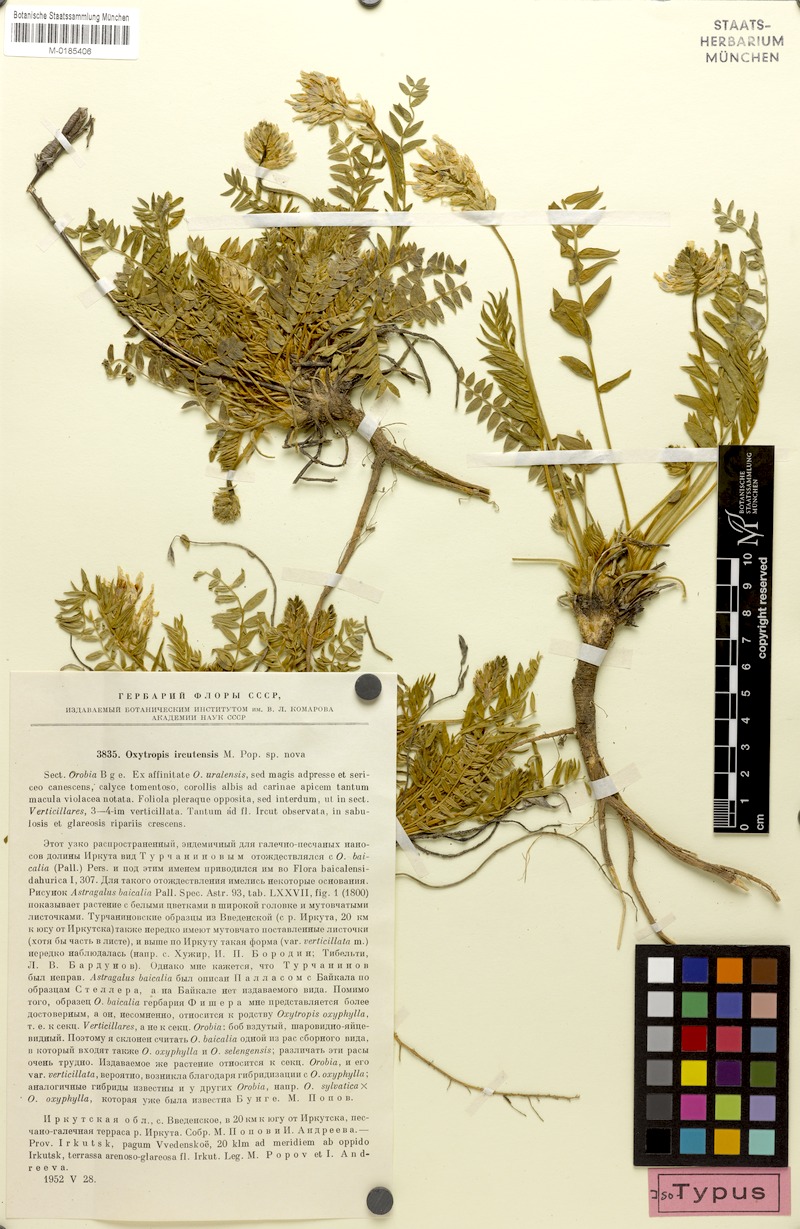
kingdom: Plantae
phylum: Tracheophyta
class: Magnoliopsida
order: Fabales
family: Fabaceae
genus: Oxytropis
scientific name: Oxytropis baicalia
